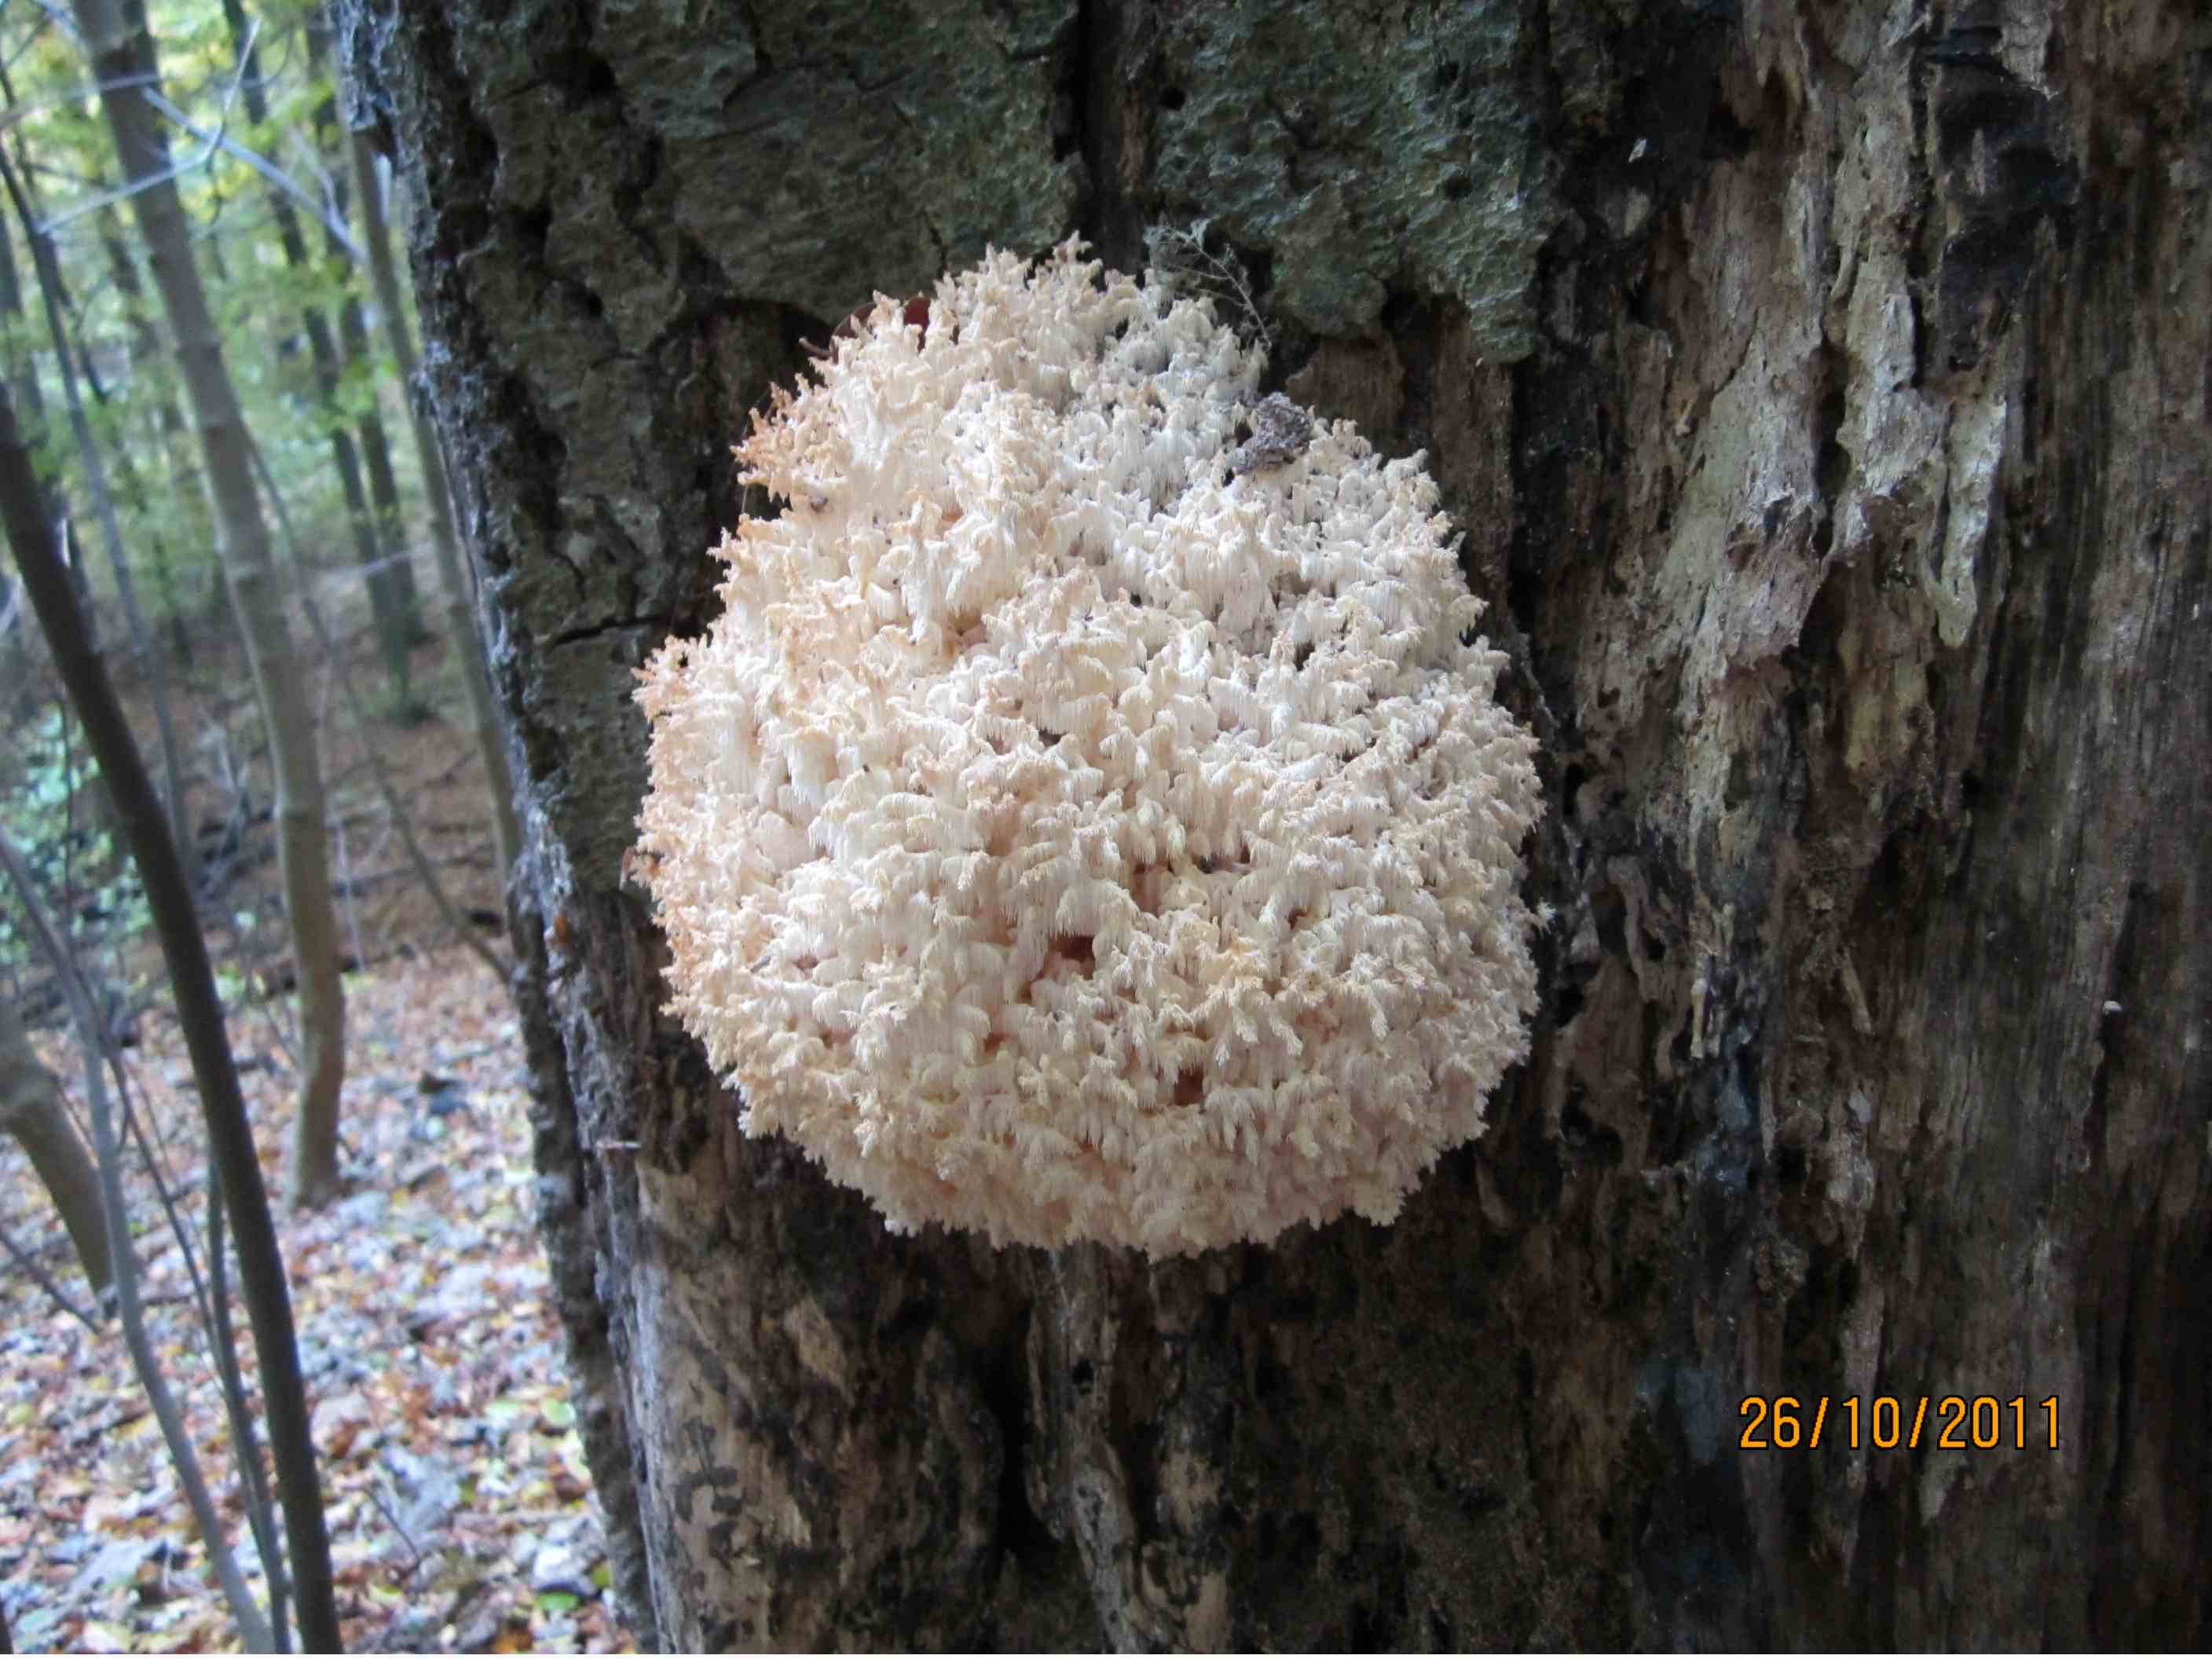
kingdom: Fungi
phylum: Basidiomycota
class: Agaricomycetes
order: Russulales
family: Hericiaceae
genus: Hericium
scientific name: Hericium coralloides
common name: koralpigsvamp
